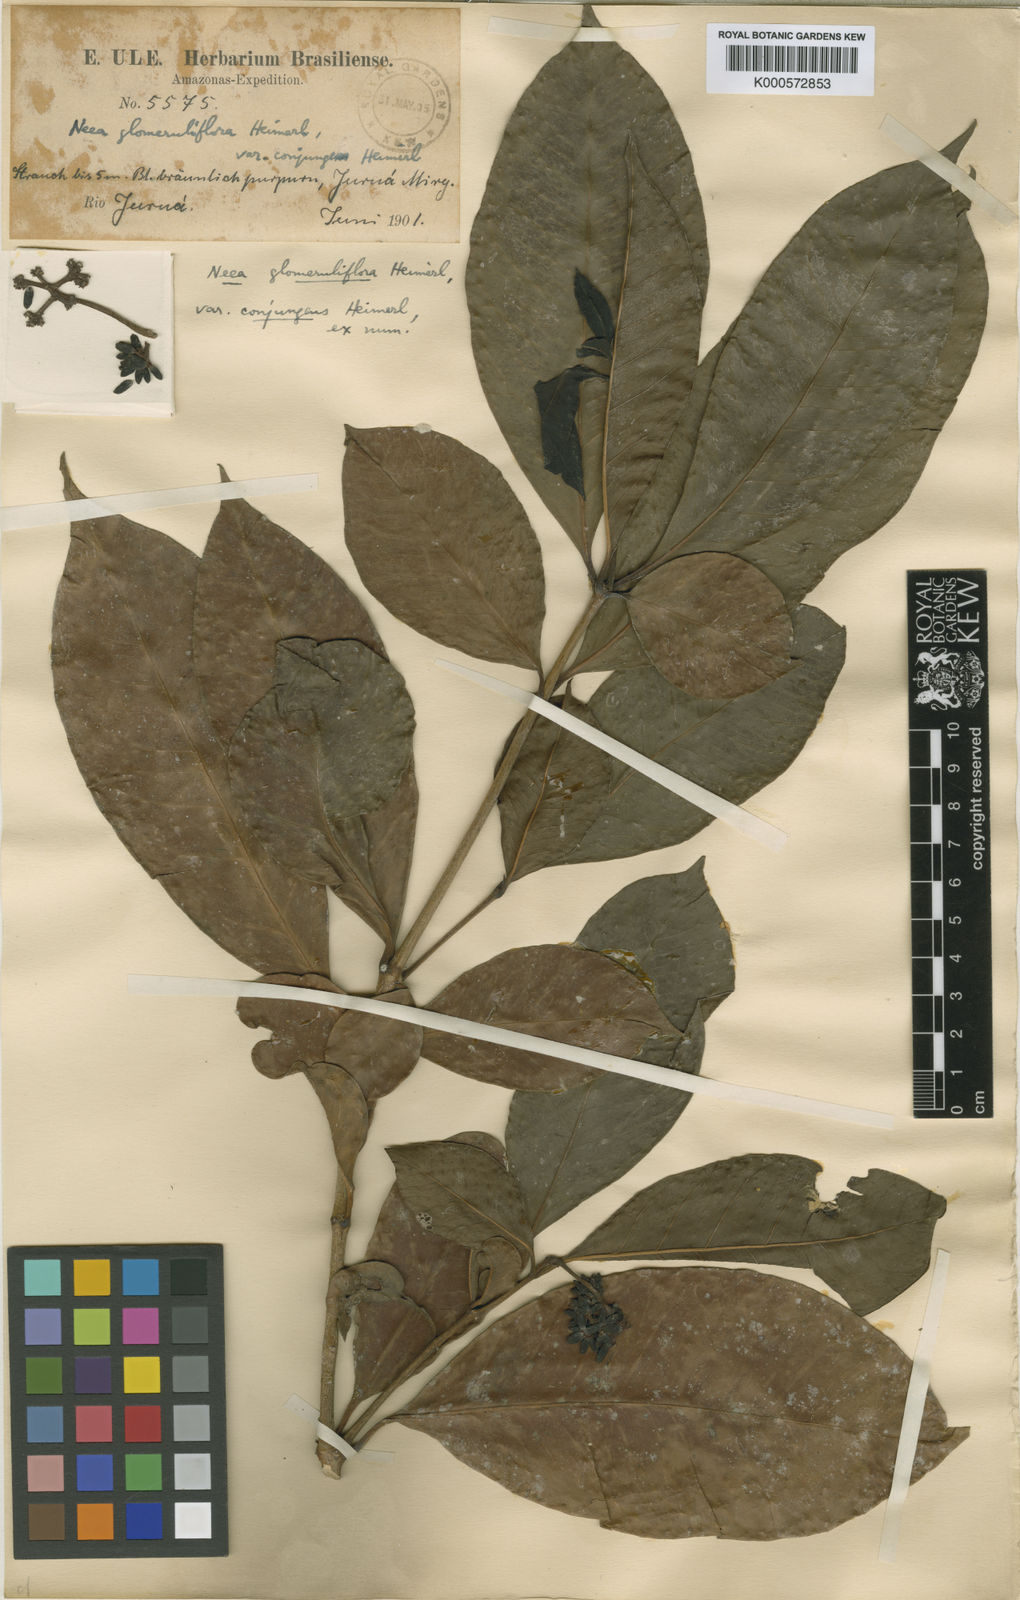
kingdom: Plantae
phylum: Tracheophyta
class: Magnoliopsida
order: Caryophyllales
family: Nyctaginaceae
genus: Neea
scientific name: Neea ovalifolia
